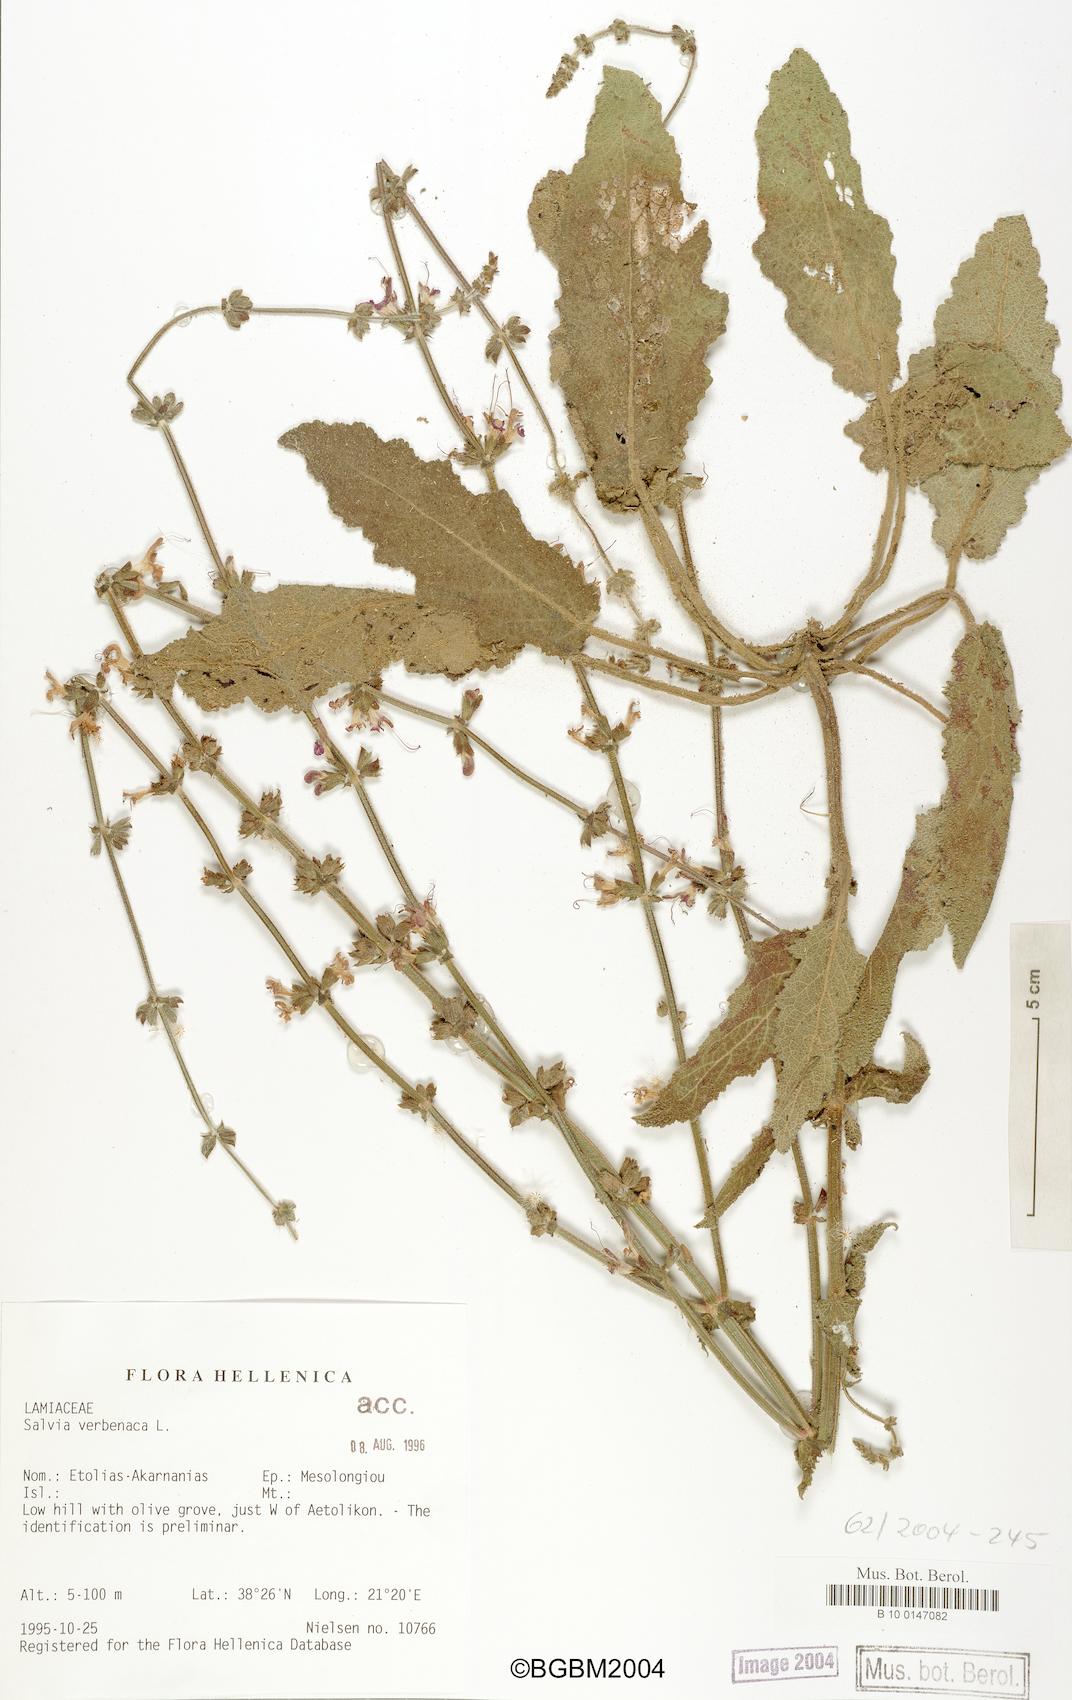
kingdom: Plantae
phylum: Tracheophyta
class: Magnoliopsida
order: Lamiales
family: Lamiaceae
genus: Salvia
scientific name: Salvia verbenaca
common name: Wild clary
